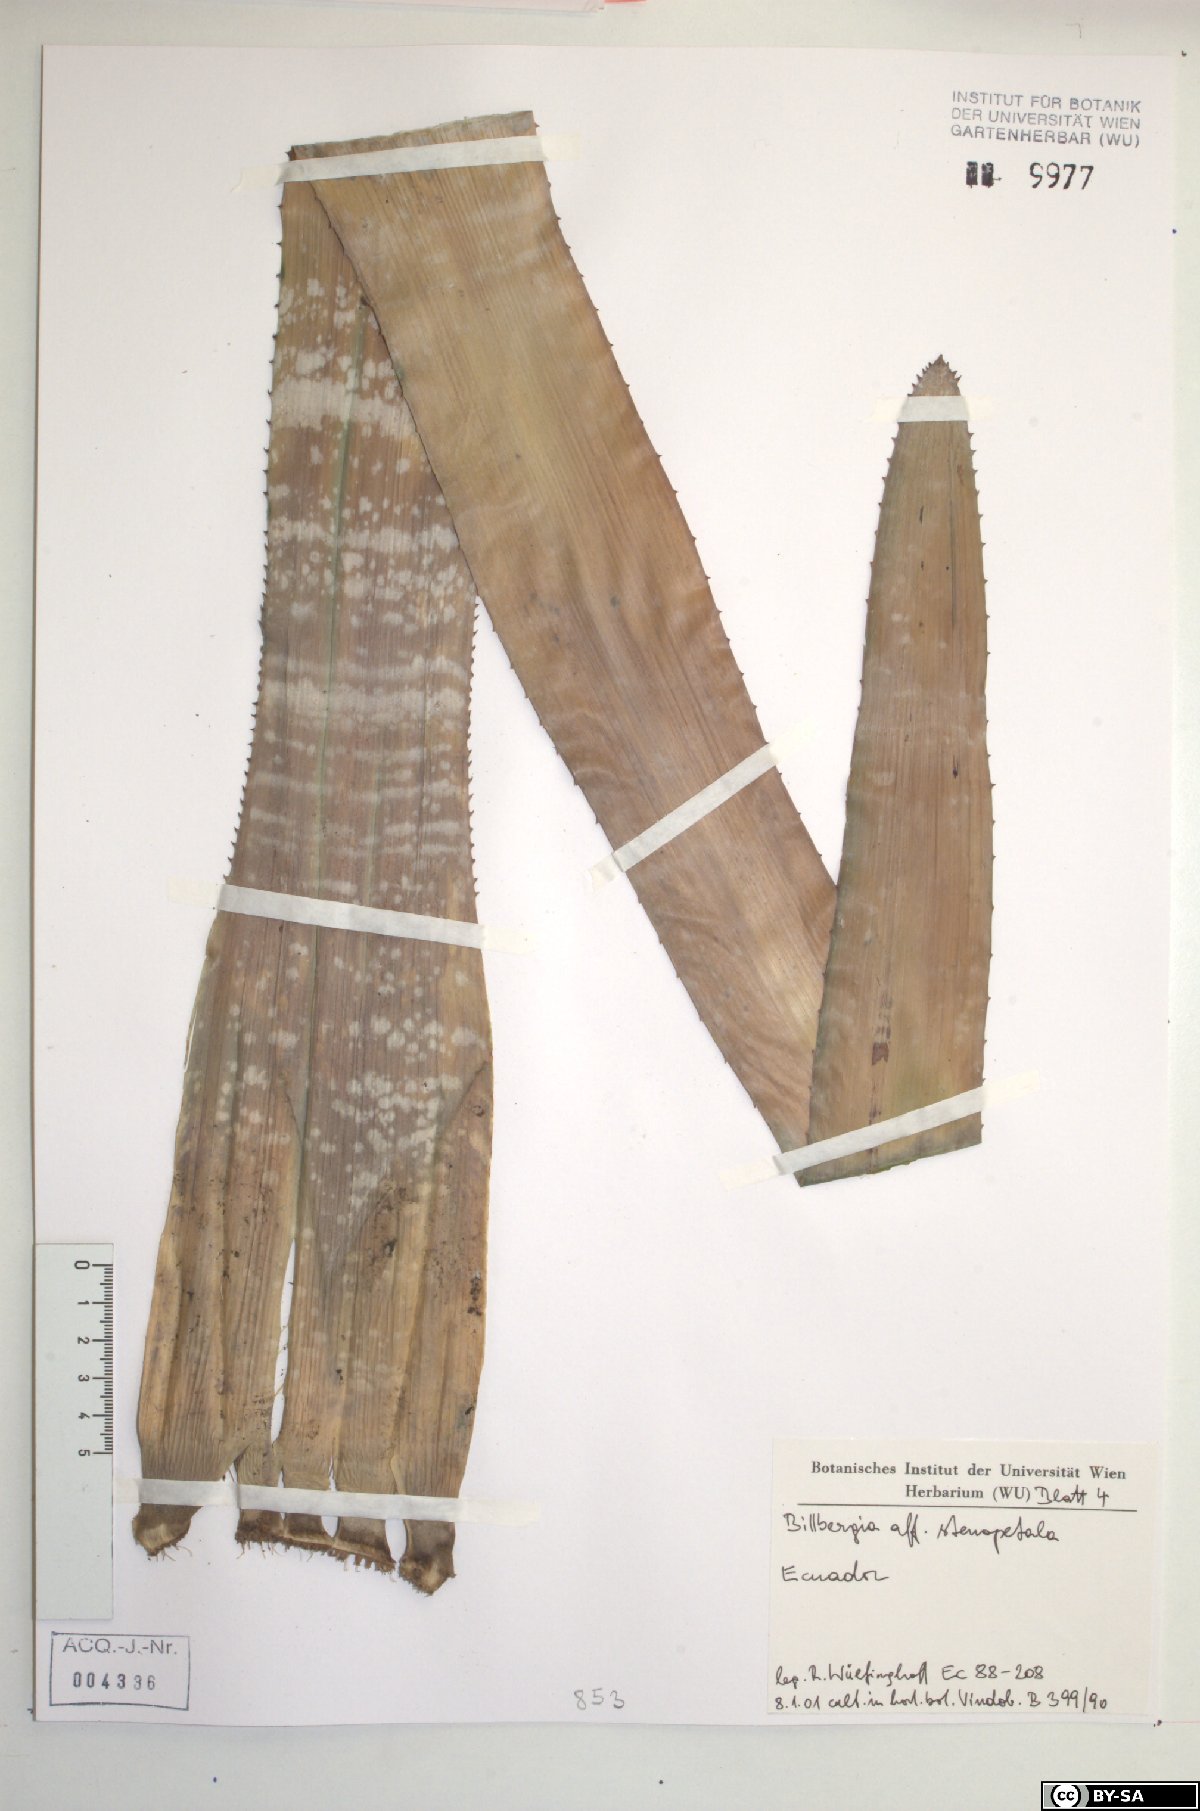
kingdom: Plantae
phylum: Tracheophyta
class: Liliopsida
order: Poales
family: Bromeliaceae
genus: Billbergia
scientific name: Billbergia stenopetala
